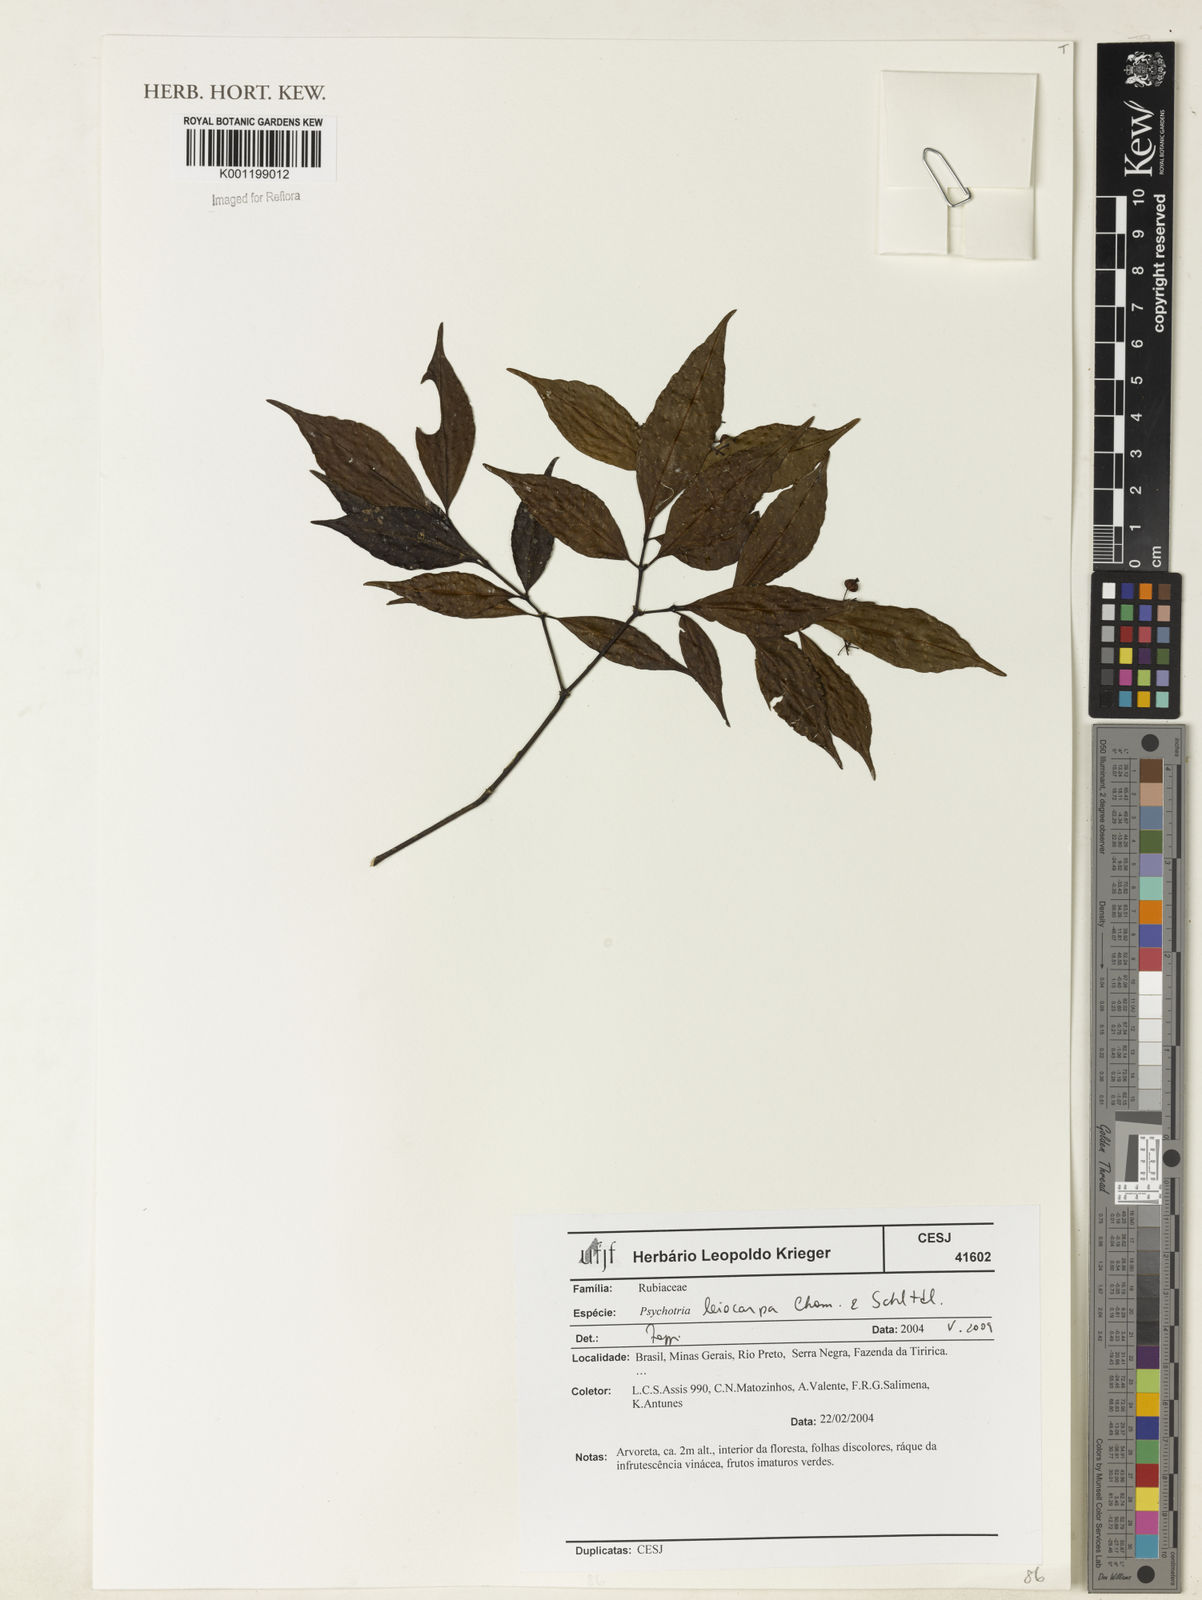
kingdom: Plantae
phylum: Tracheophyta
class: Magnoliopsida
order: Gentianales
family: Rubiaceae
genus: Psychotria
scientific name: Psychotria leiocarpa
